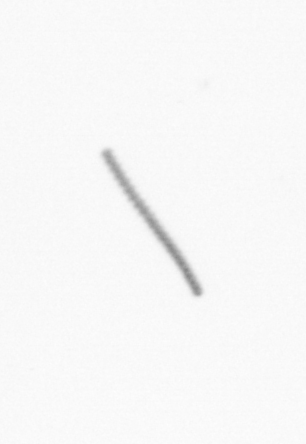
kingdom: Chromista
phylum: Ochrophyta
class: Bacillariophyceae
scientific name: Bacillariophyceae
